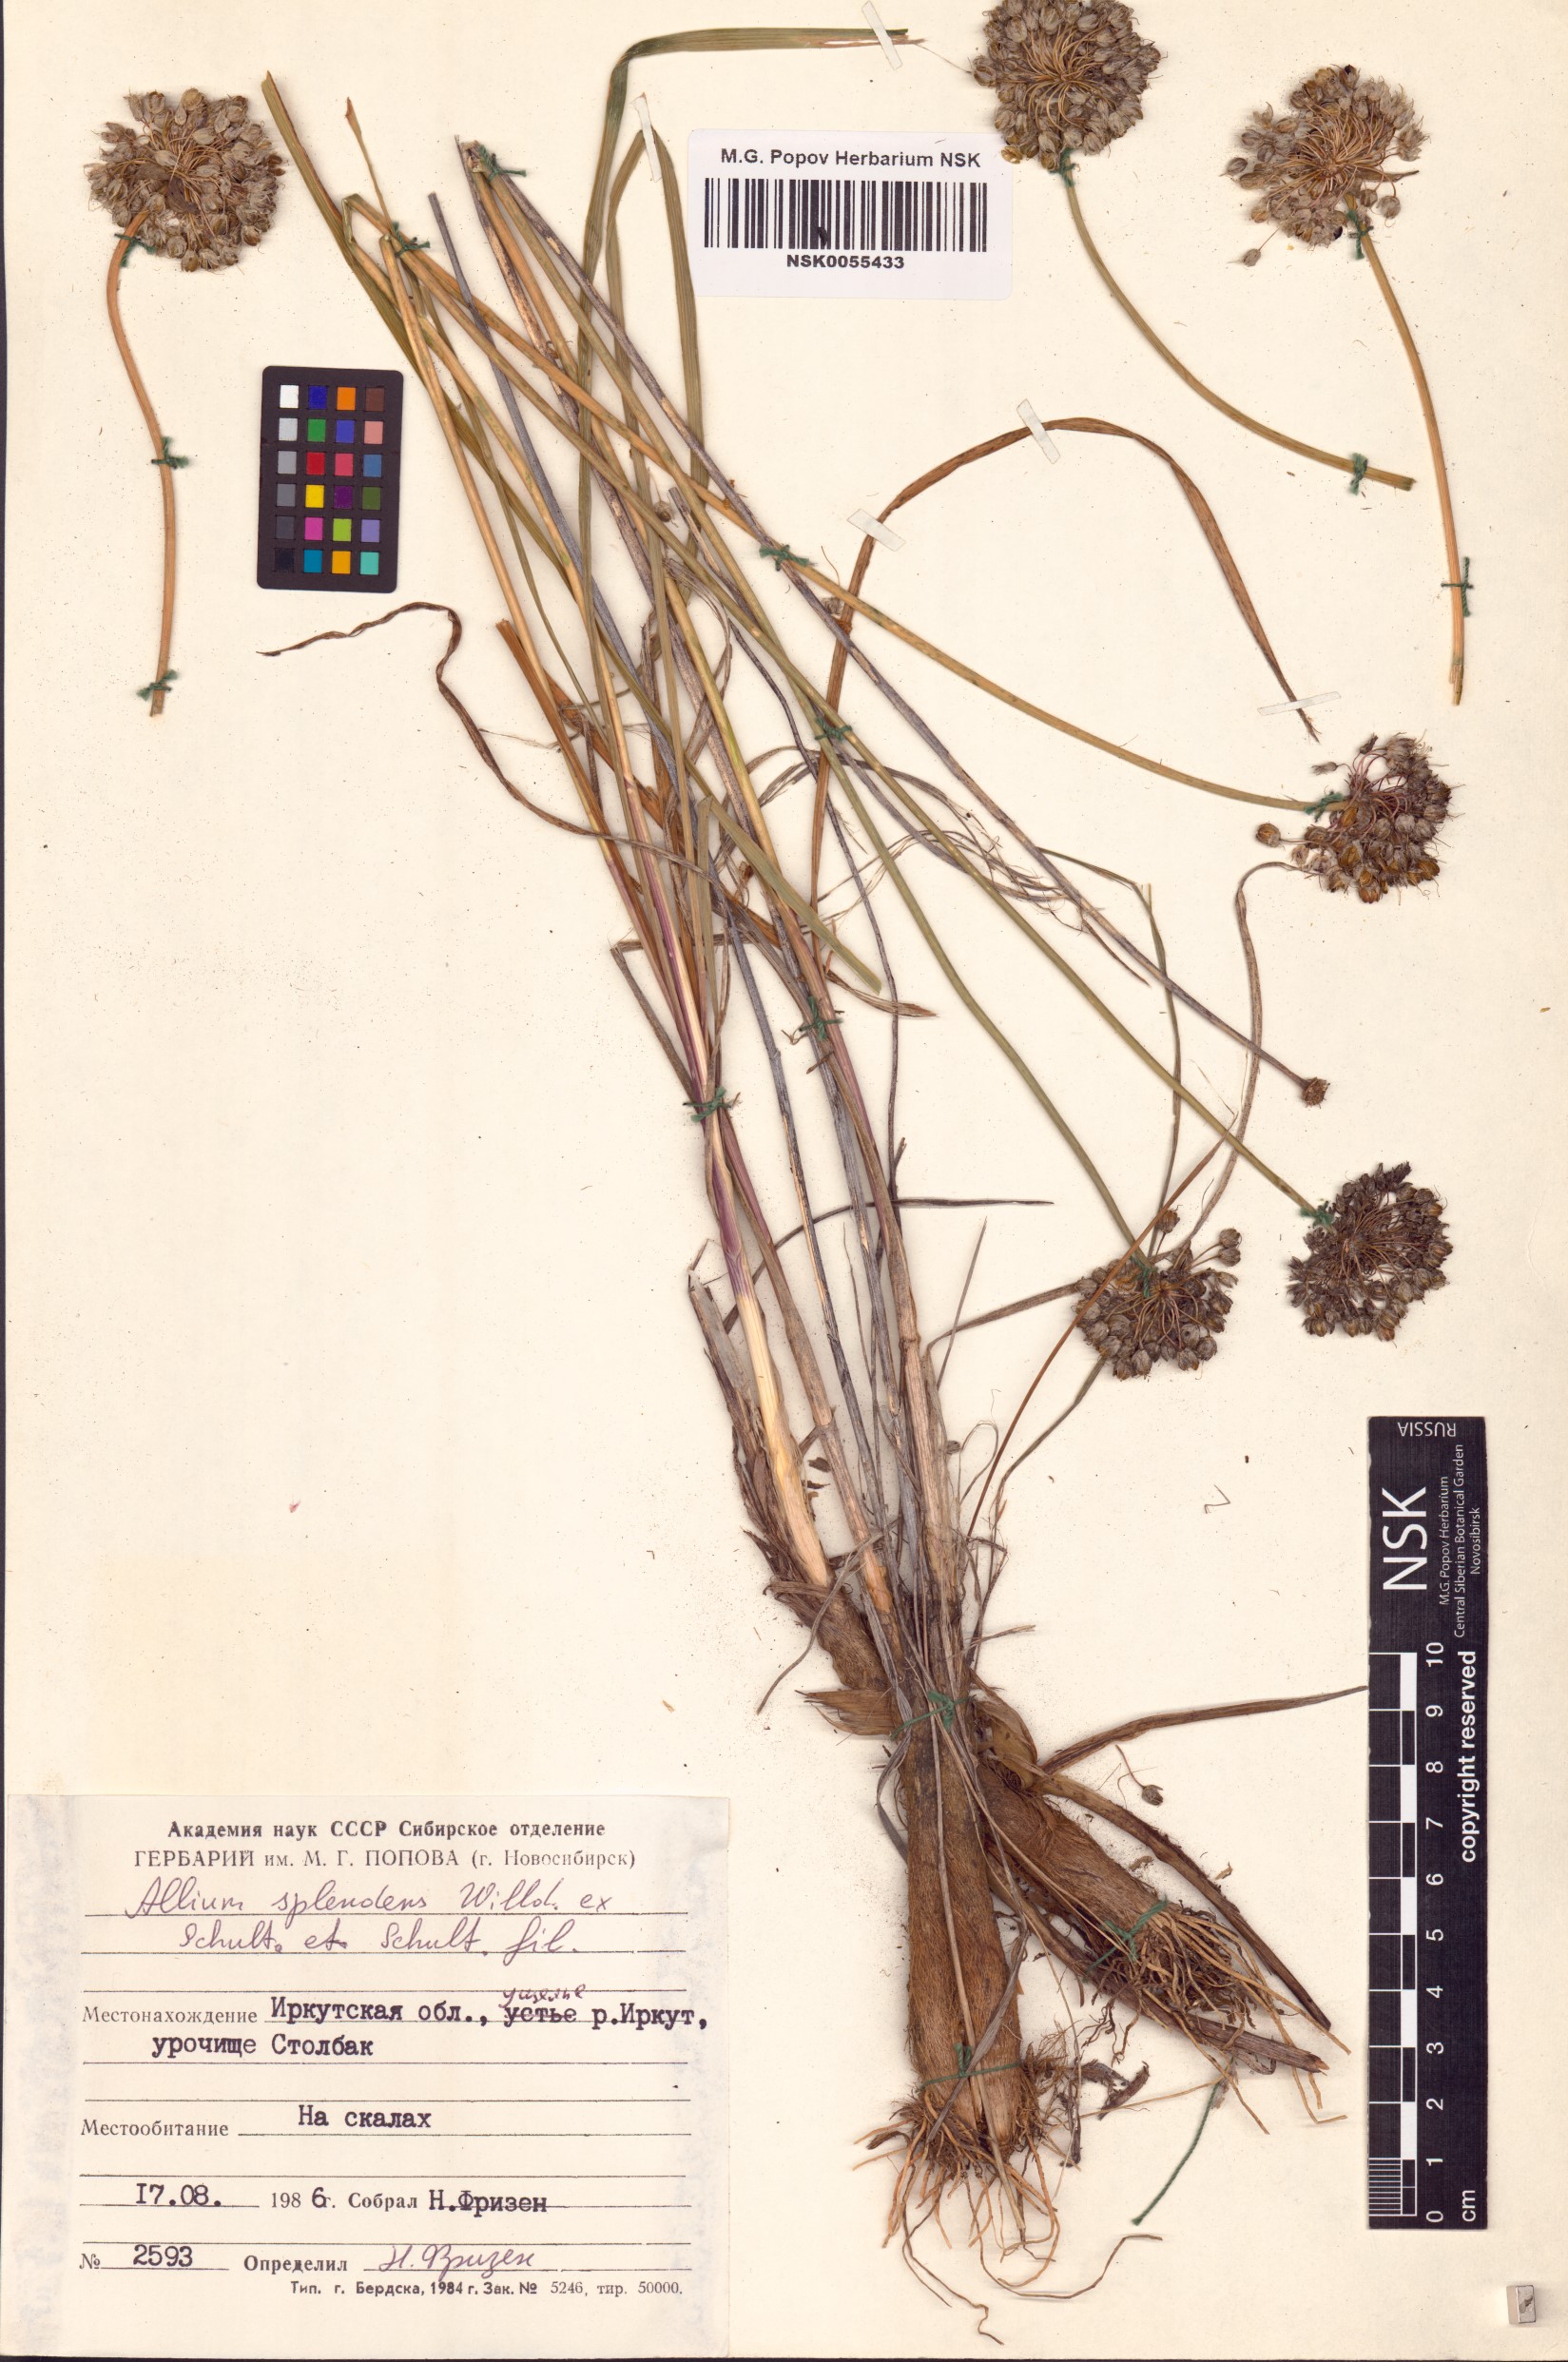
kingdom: Plantae
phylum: Tracheophyta
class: Liliopsida
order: Asparagales
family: Amaryllidaceae
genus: Allium
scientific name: Allium splendens
